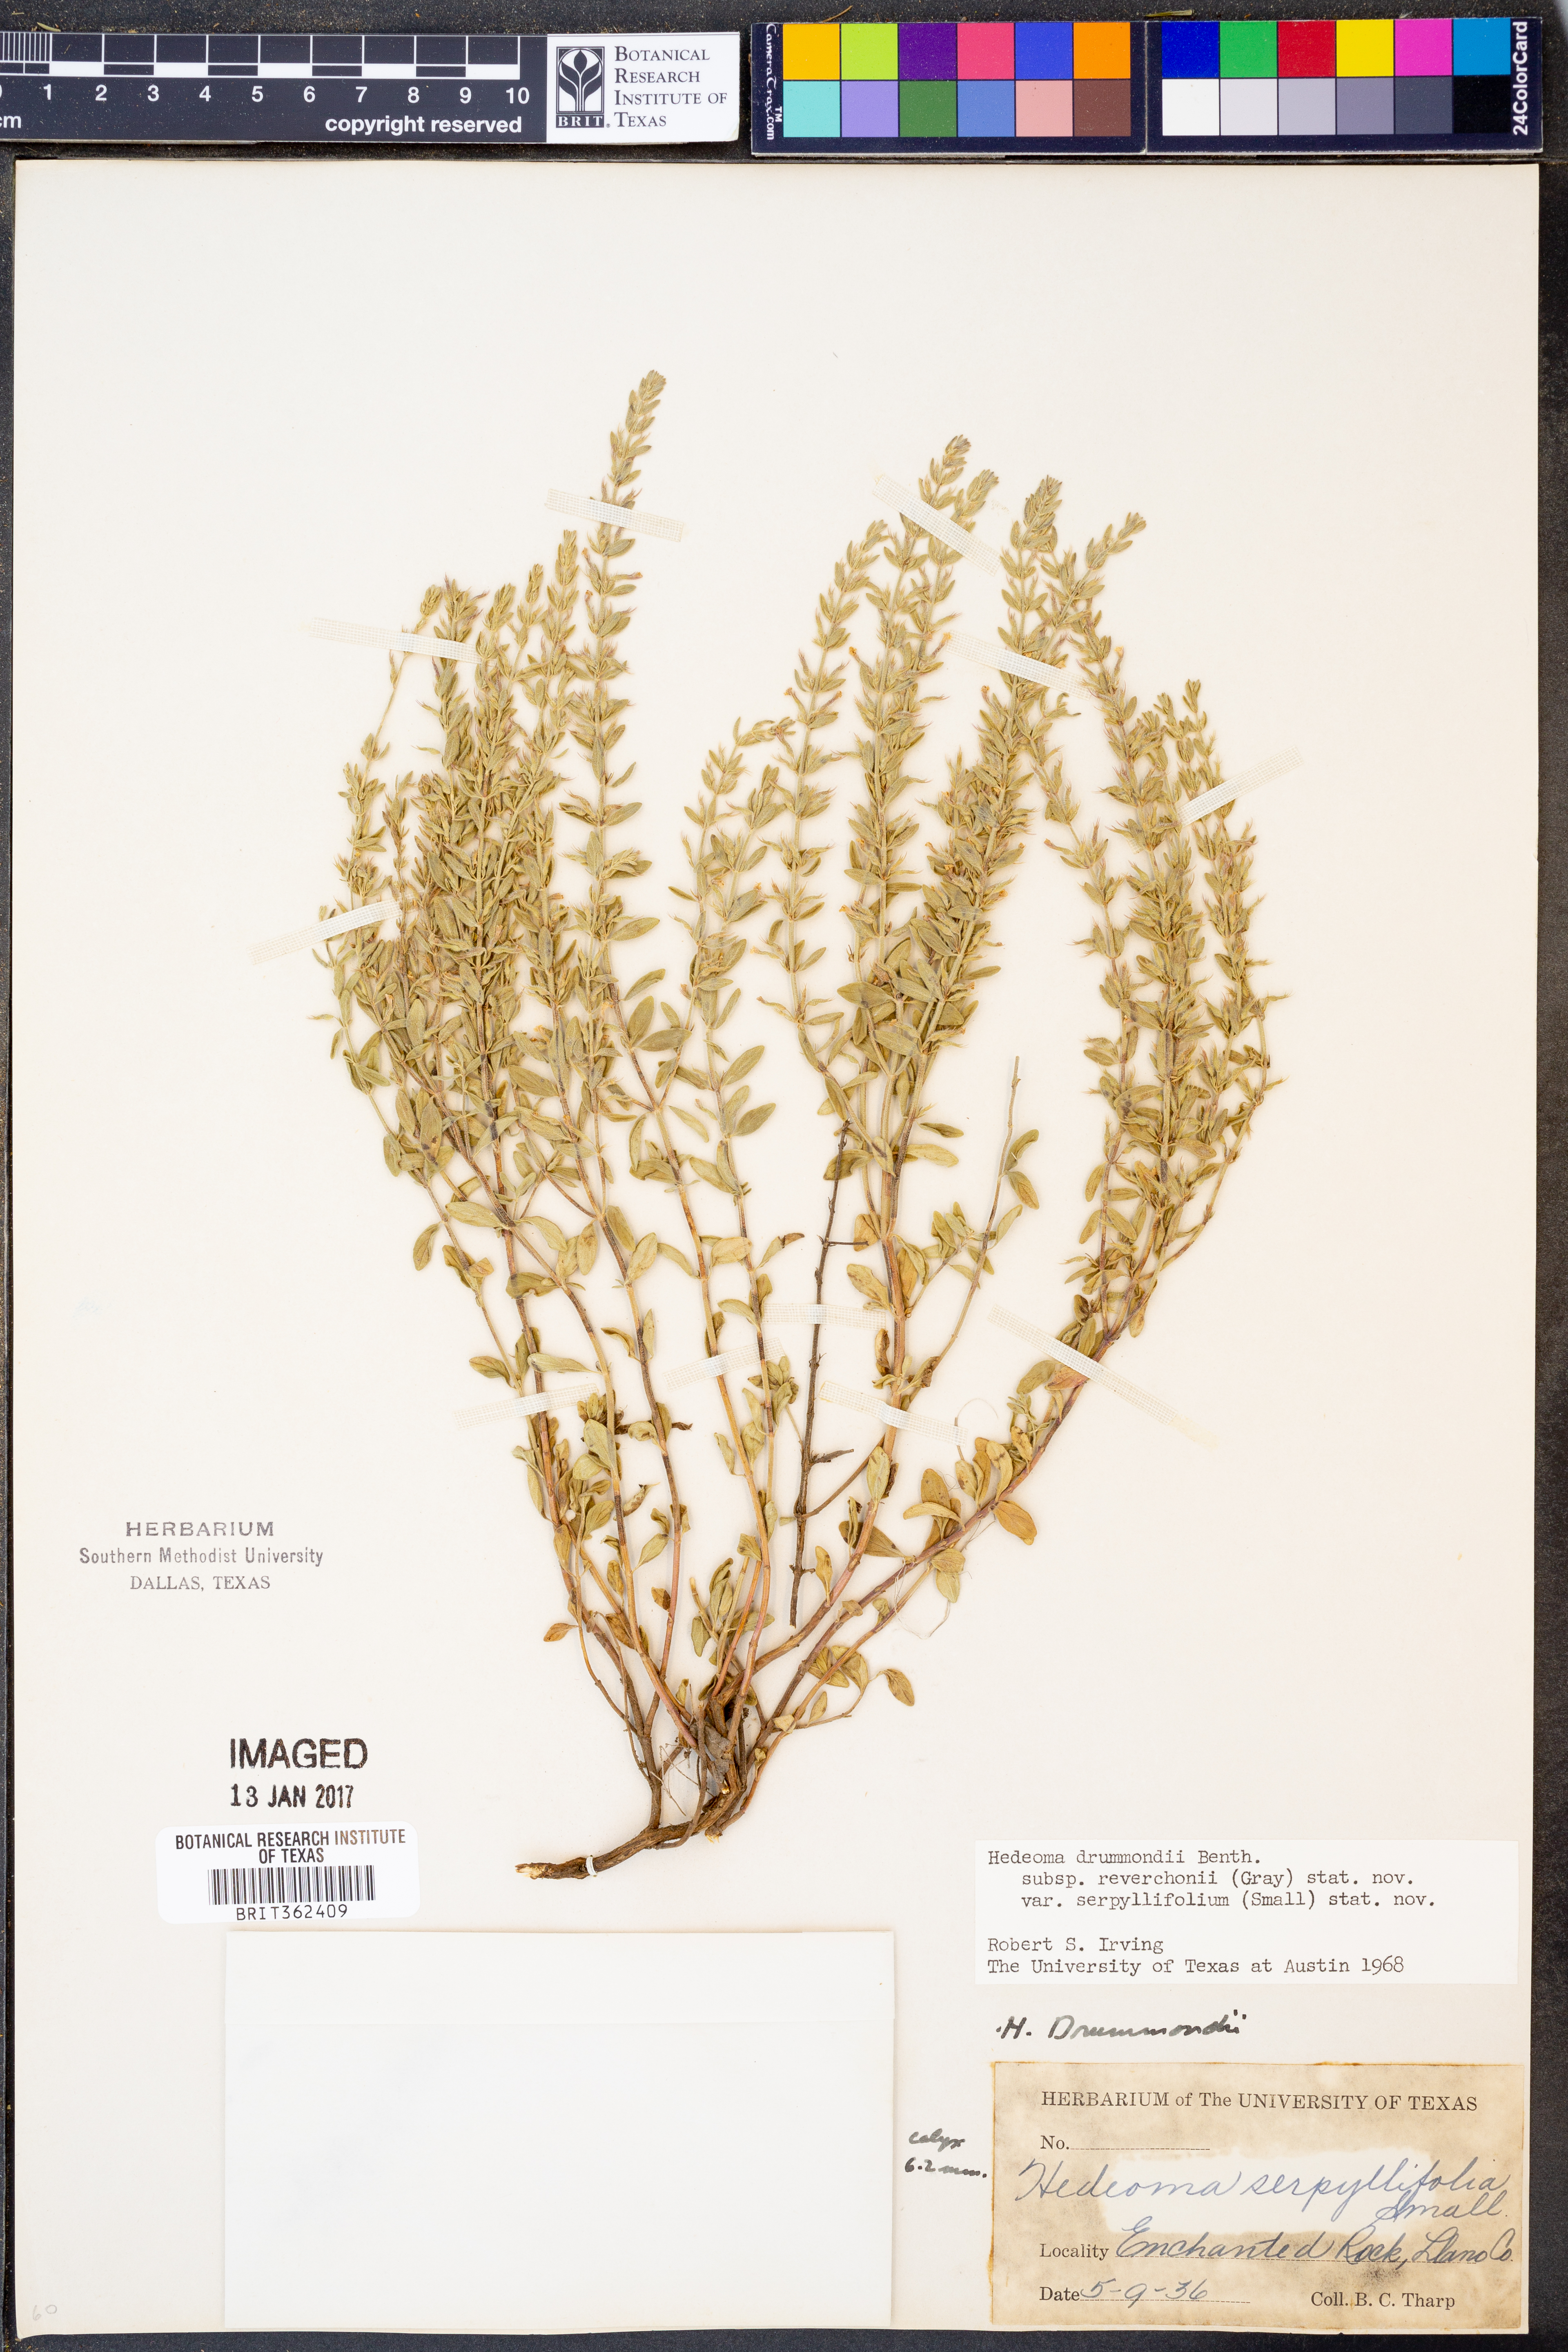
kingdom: Plantae
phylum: Tracheophyta
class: Magnoliopsida
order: Lamiales
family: Lamiaceae
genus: Hedeoma
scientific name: Hedeoma reverchonii
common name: Reverchon's false penny-royal
